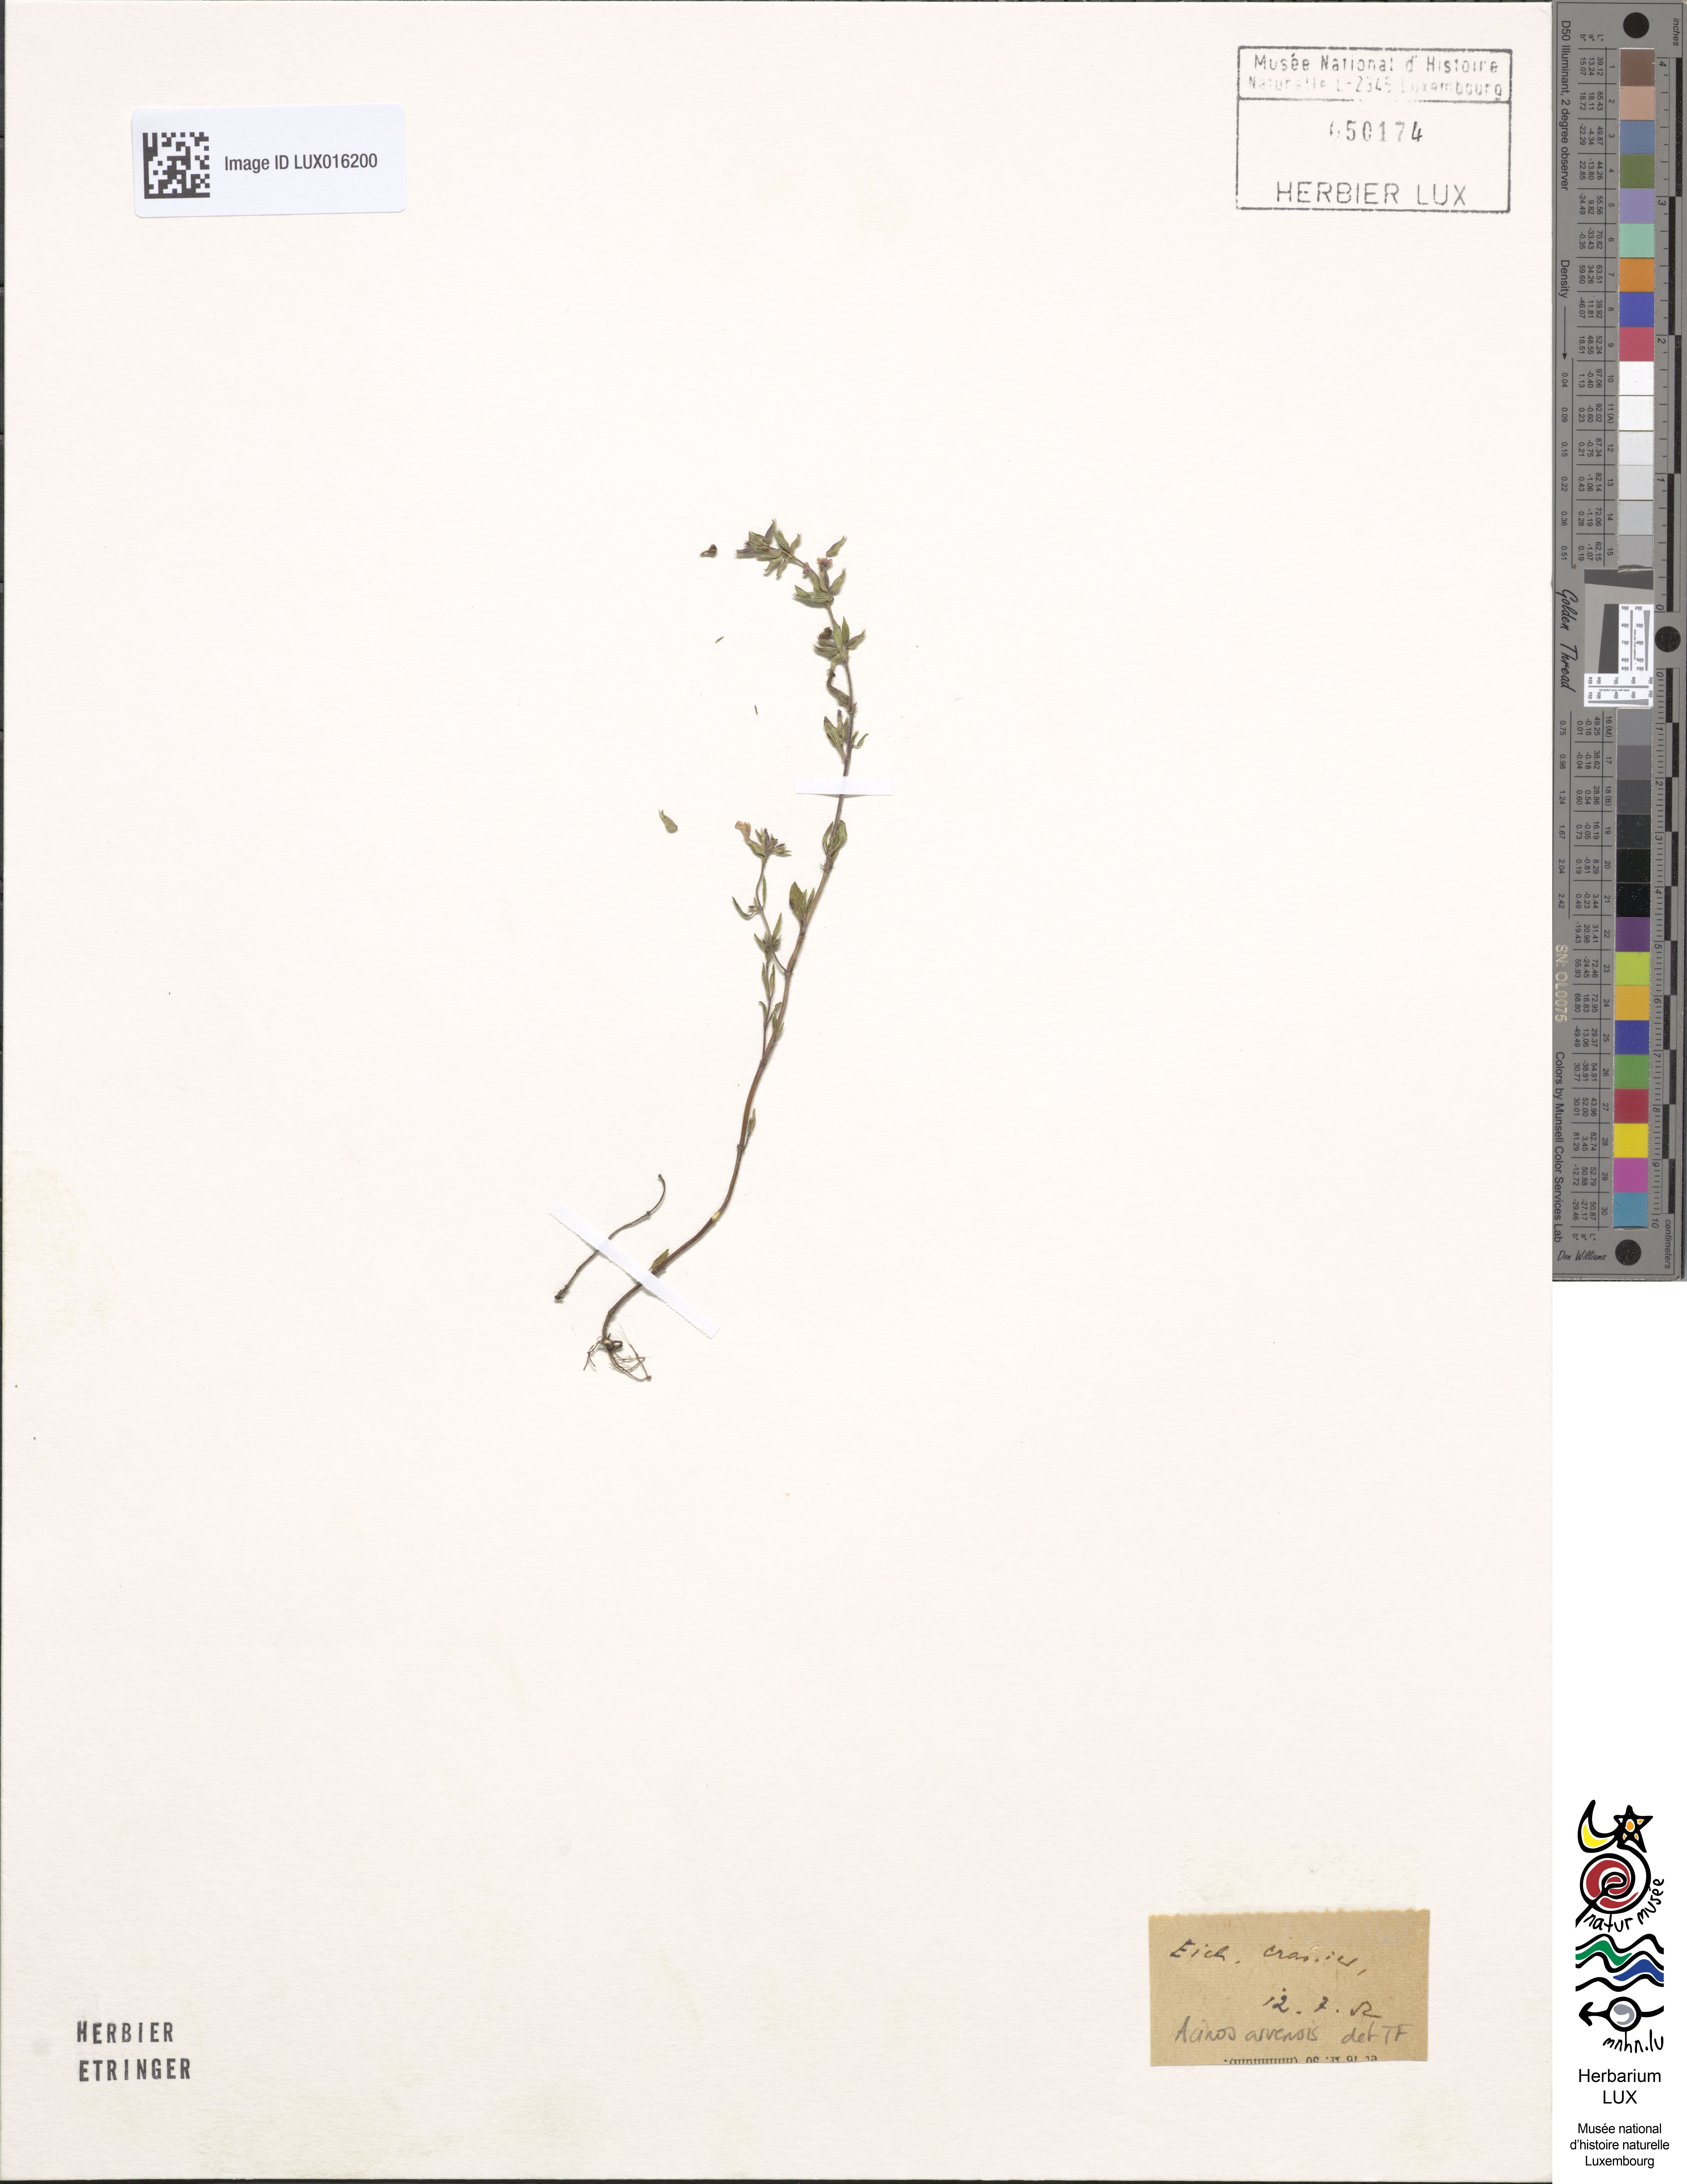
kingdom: Plantae
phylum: Tracheophyta
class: Magnoliopsida
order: Lamiales
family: Lamiaceae
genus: Clinopodium
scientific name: Clinopodium acinos
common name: Basil thyme
